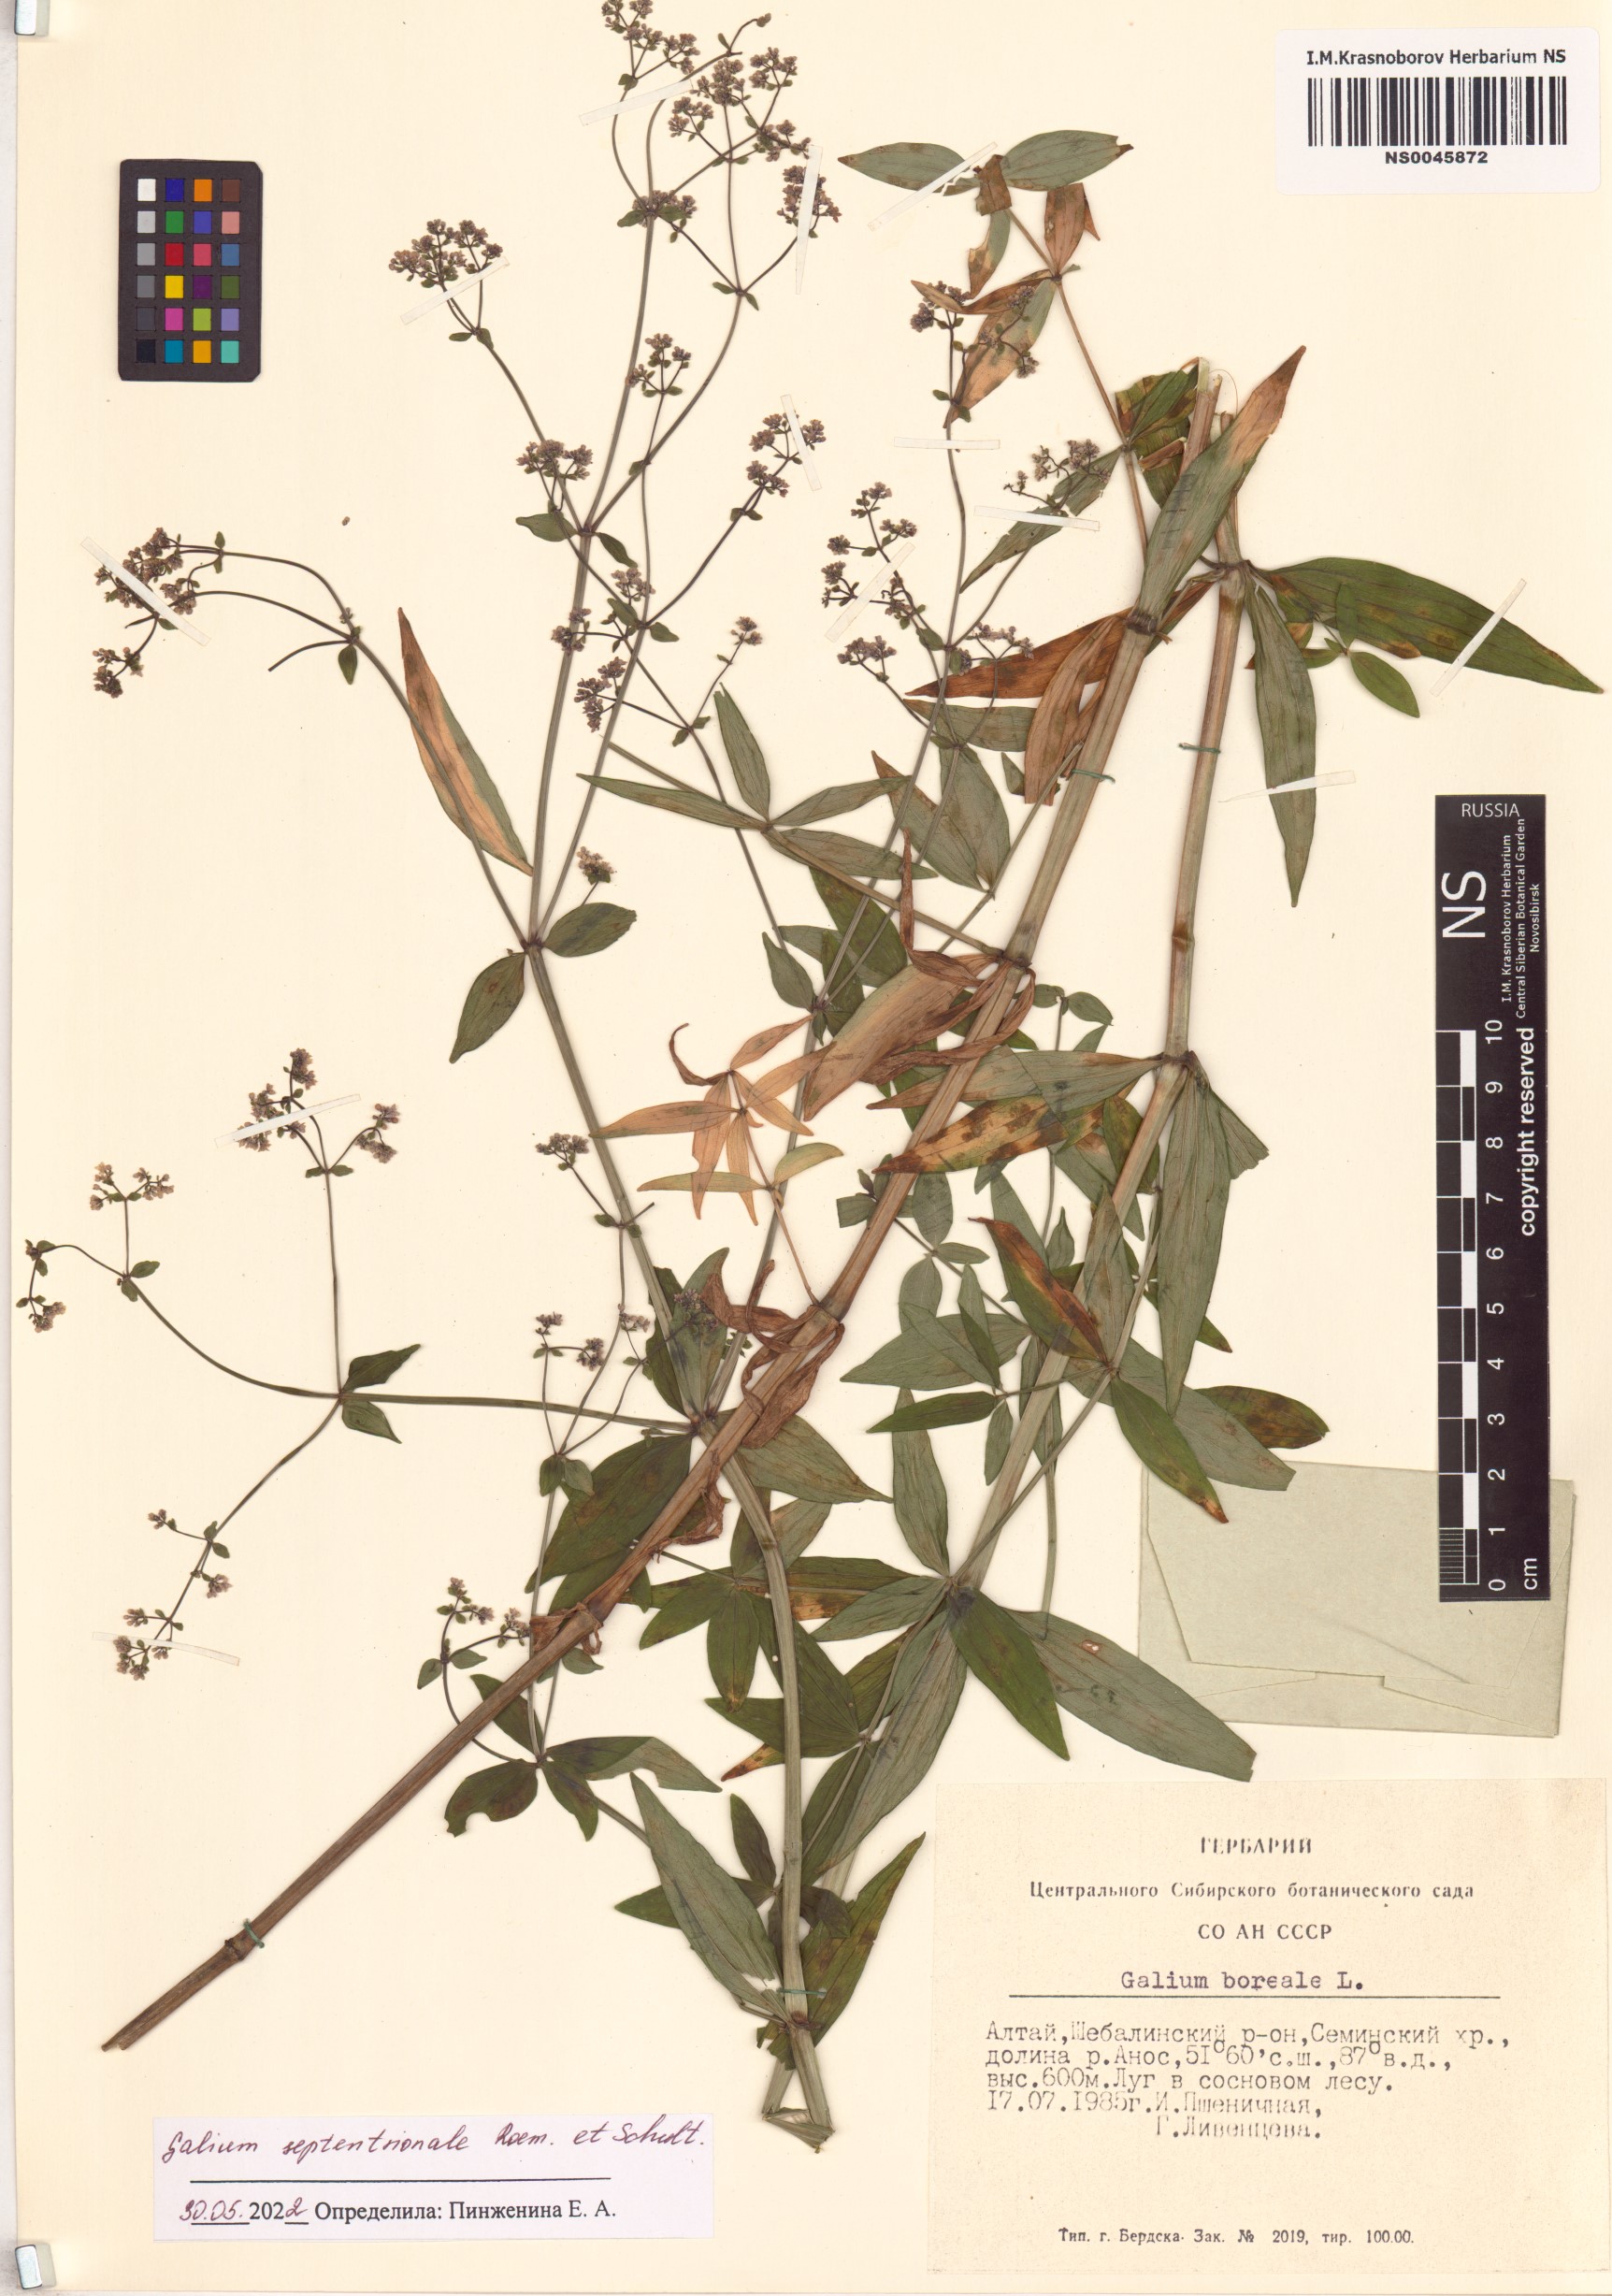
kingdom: Plantae
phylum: Tracheophyta
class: Magnoliopsida
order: Gentianales
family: Rubiaceae
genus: Galium
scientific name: Galium boreale
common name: Northern bedstraw
